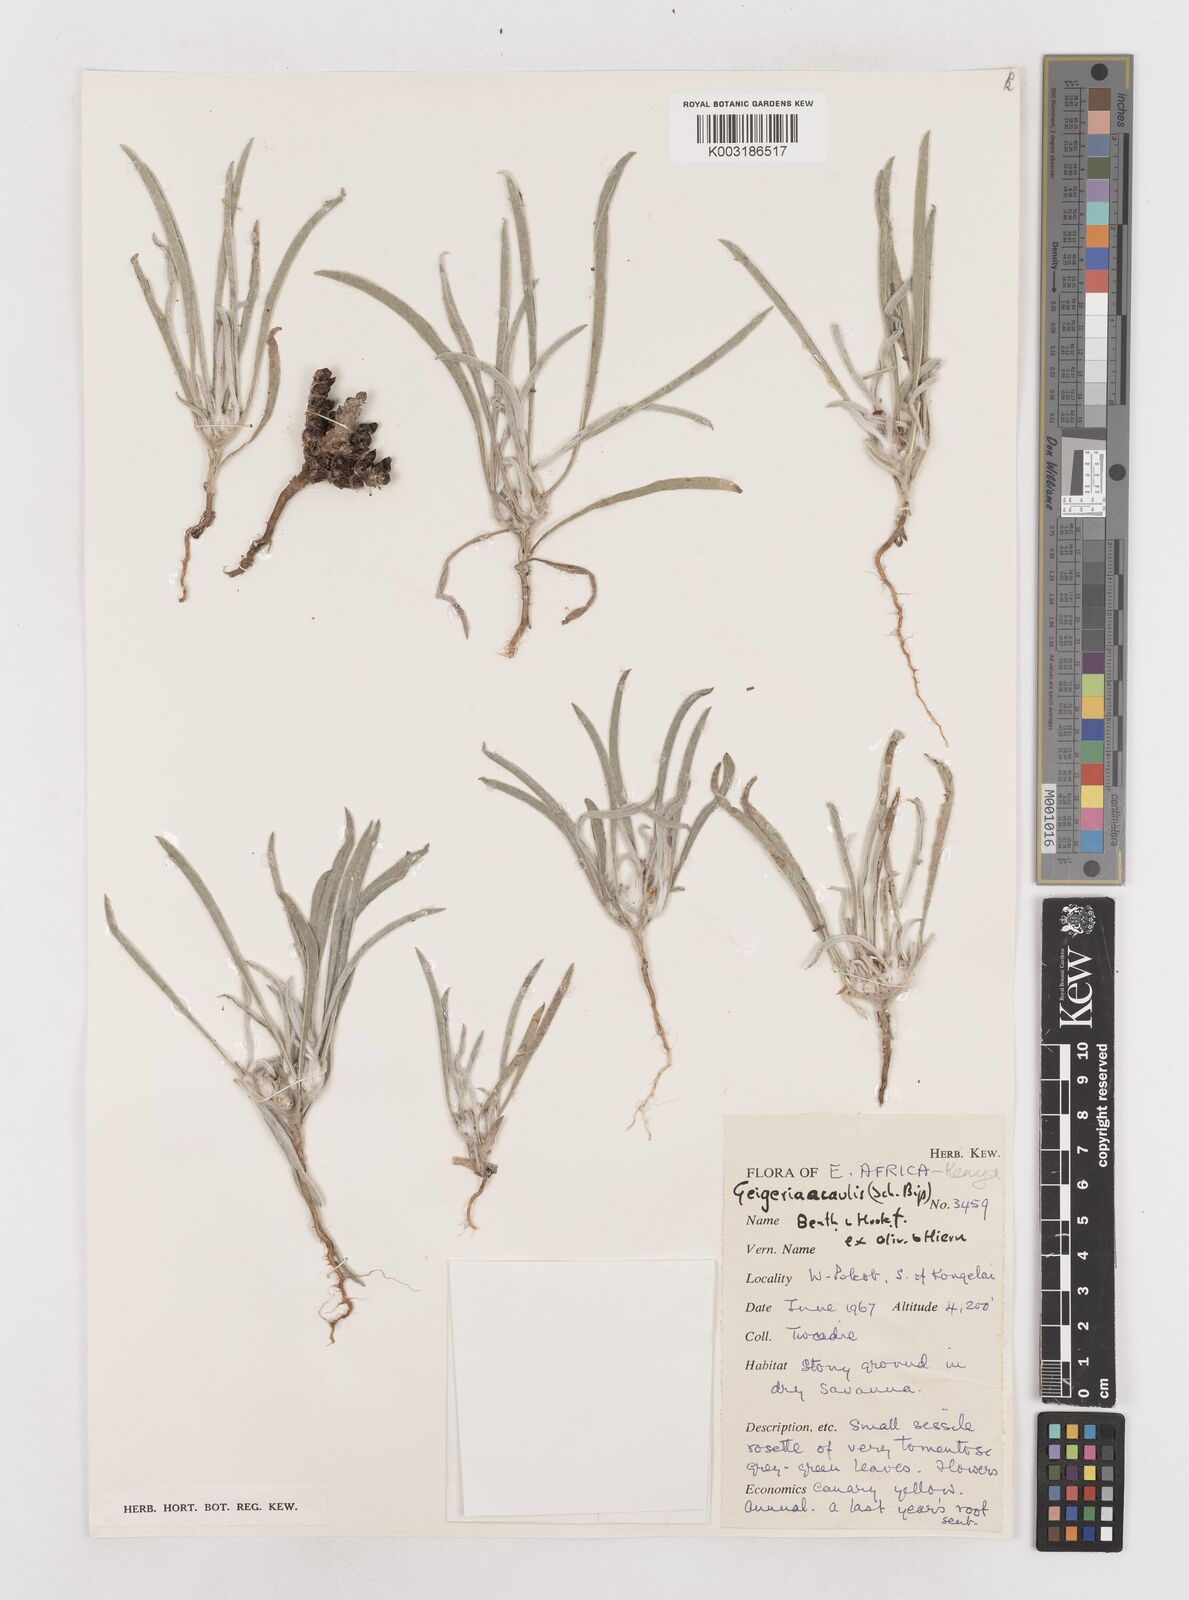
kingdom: Plantae
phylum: Tracheophyta
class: Magnoliopsida
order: Asterales
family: Asteraceae
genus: Geigeria
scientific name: Geigeria acaulis
